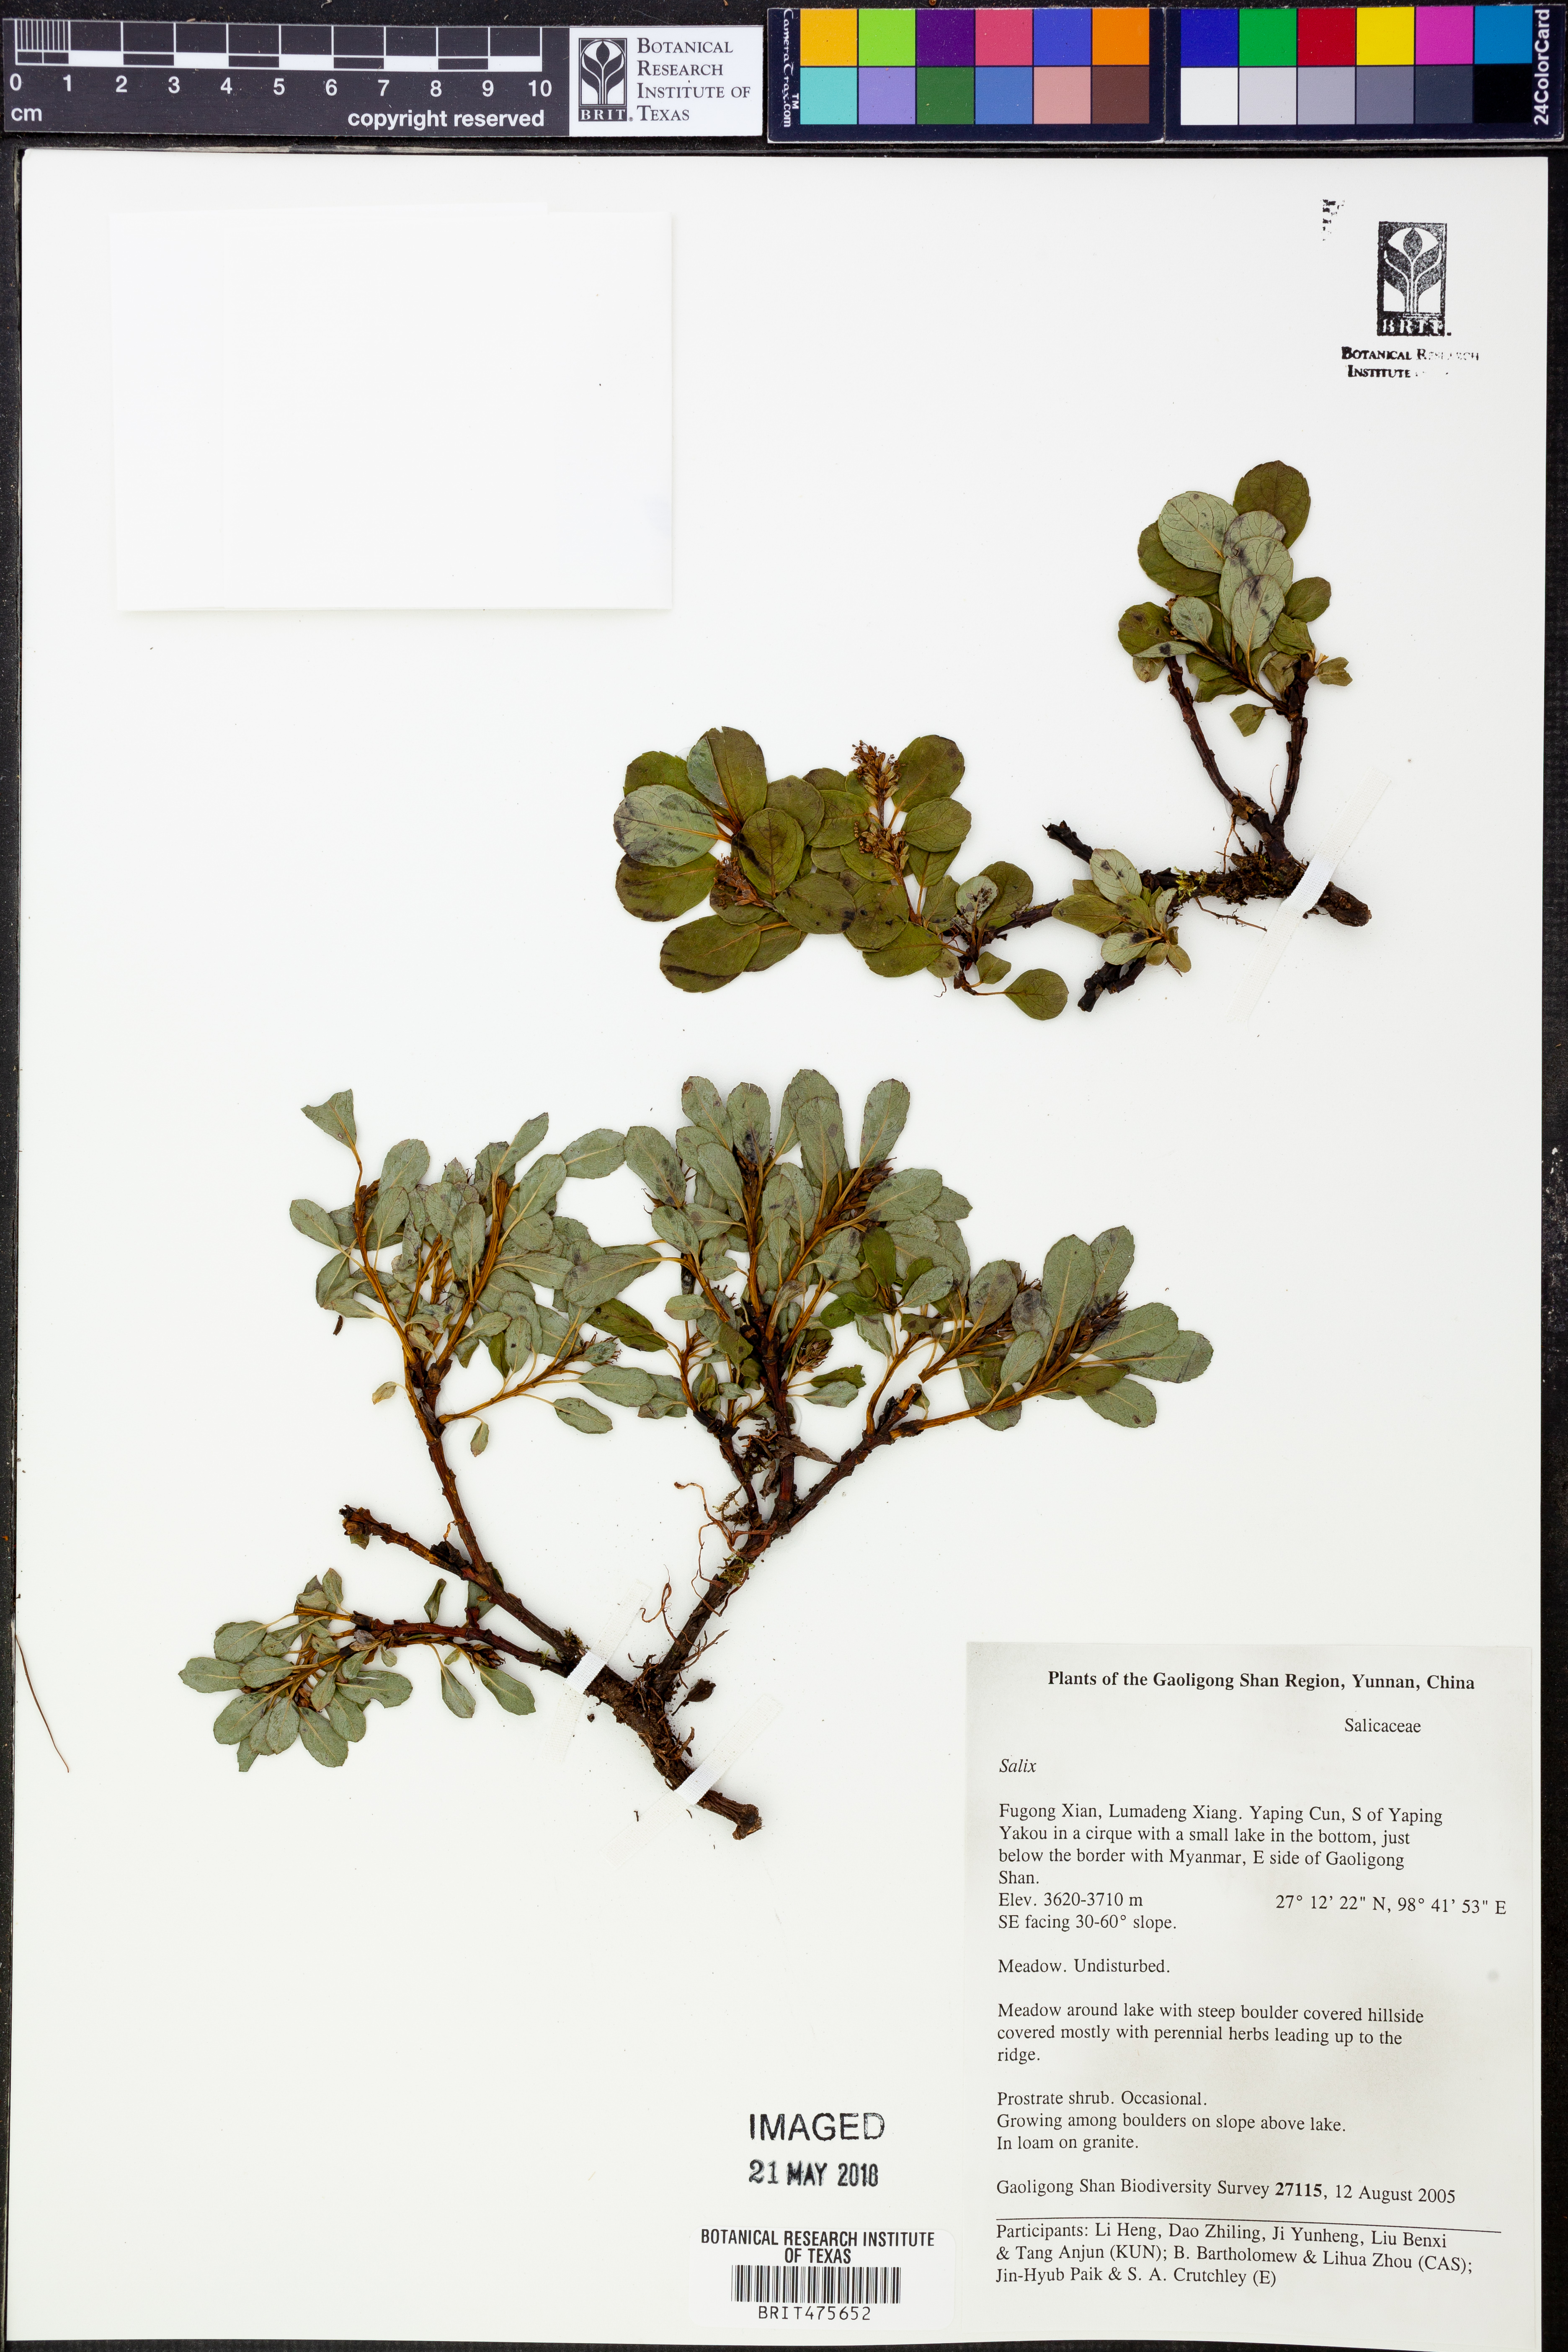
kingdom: Plantae
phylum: Tracheophyta
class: Magnoliopsida
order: Malpighiales
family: Salicaceae
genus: Salix
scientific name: Salix
